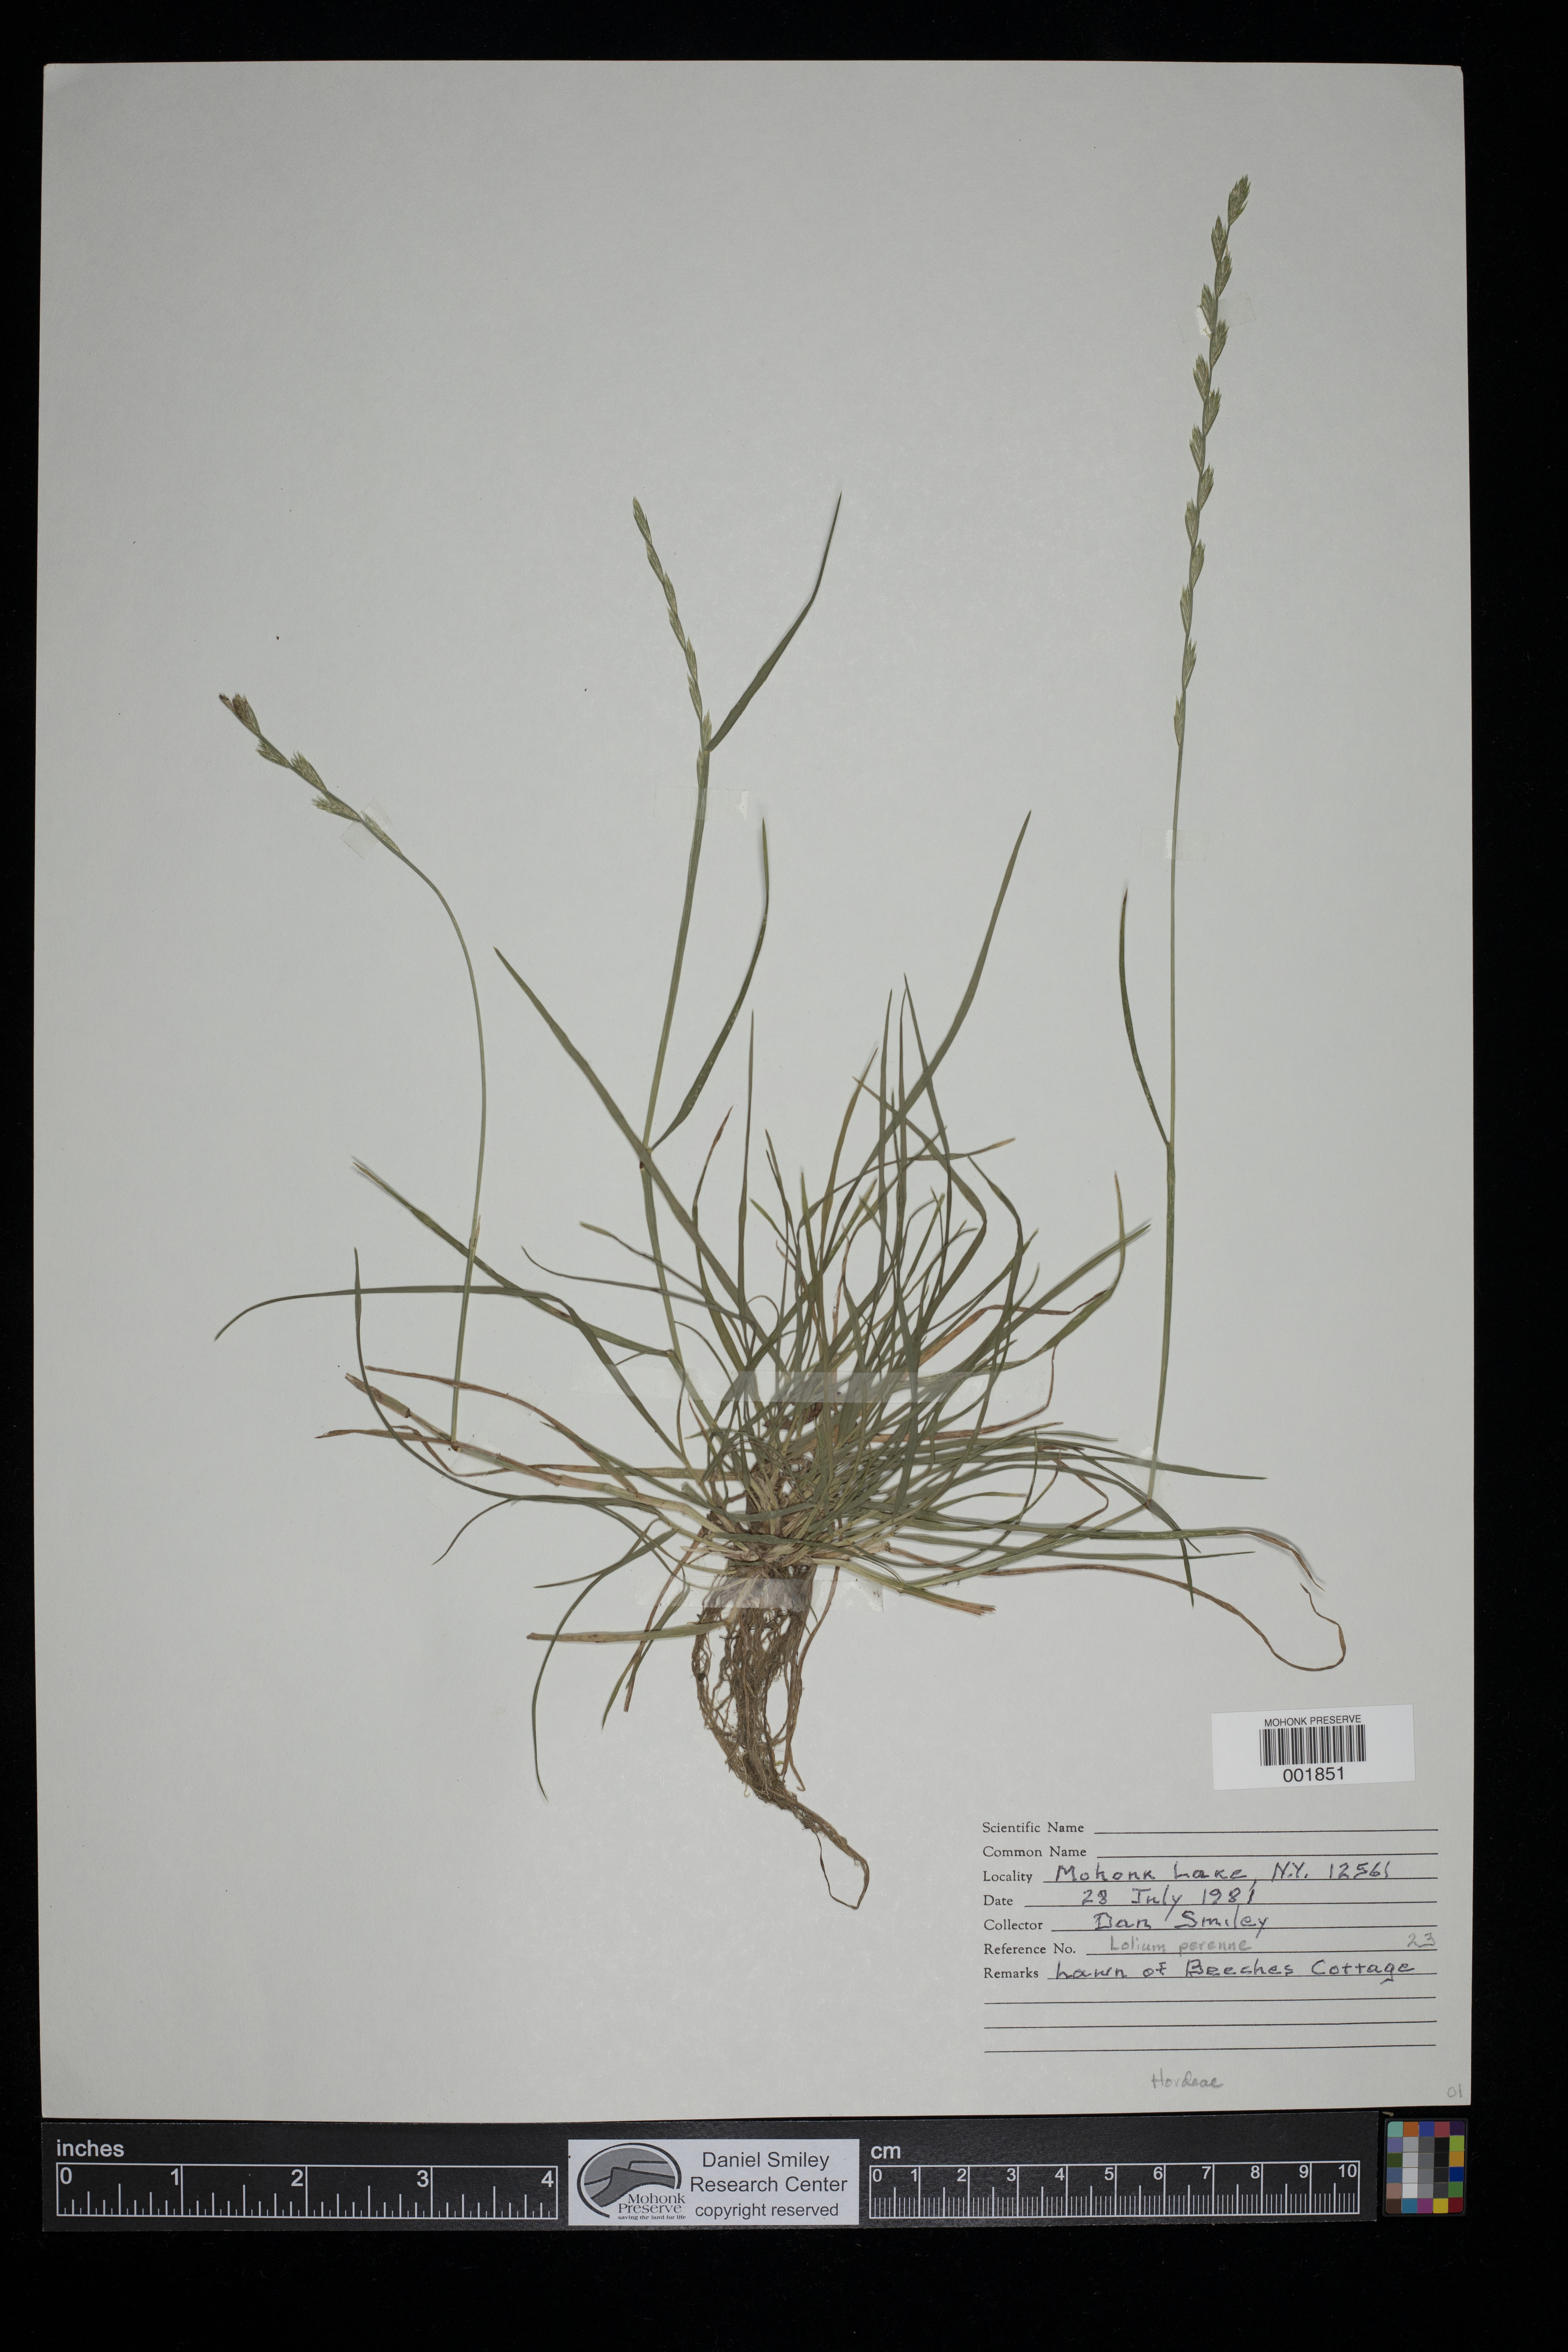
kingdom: Plantae
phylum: Tracheophyta
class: Liliopsida
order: Poales
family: Poaceae
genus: Lolium
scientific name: Lolium perenne
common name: Perennial ryegrass
